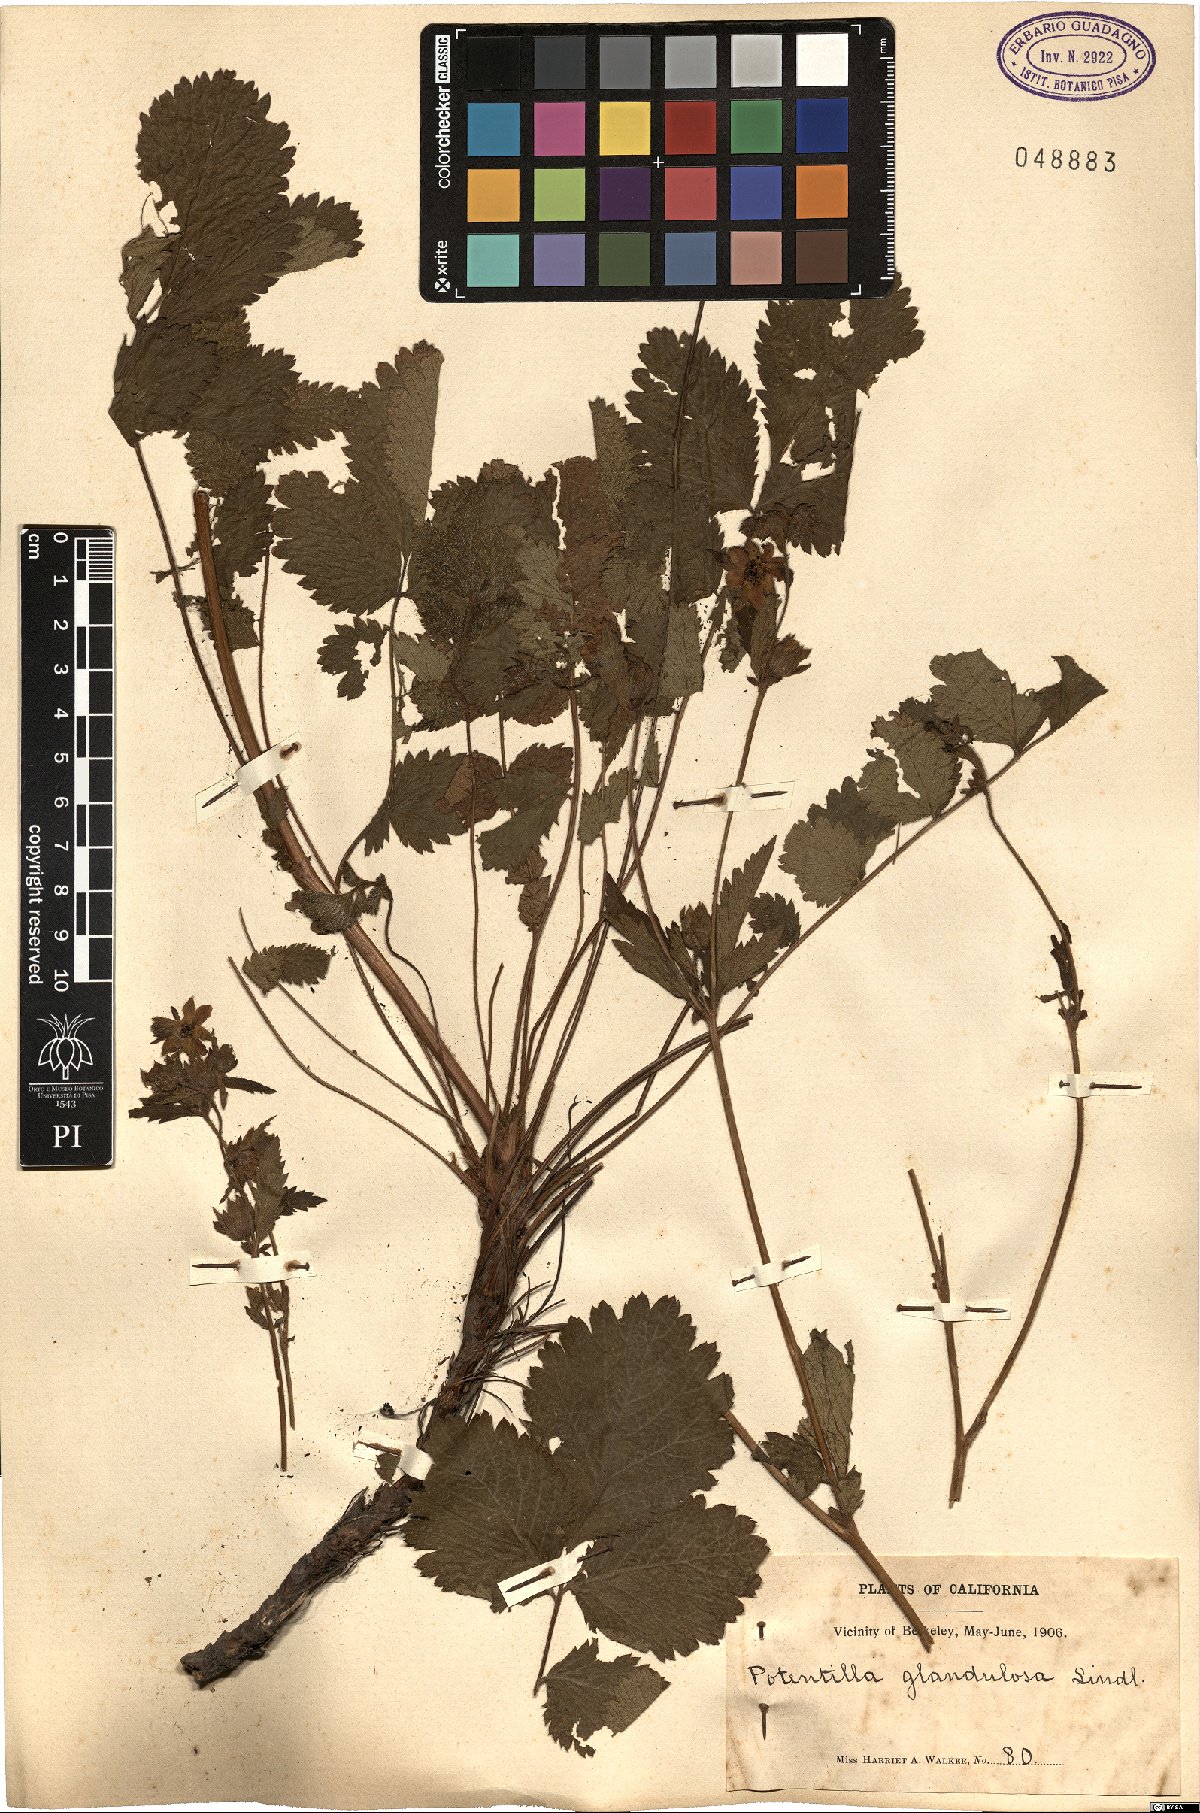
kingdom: Plantae
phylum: Tracheophyta
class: Magnoliopsida
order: Rosales
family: Rosaceae
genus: Drymocallis
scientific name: Drymocallis glandulosa
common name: Sticky cinquefoil
